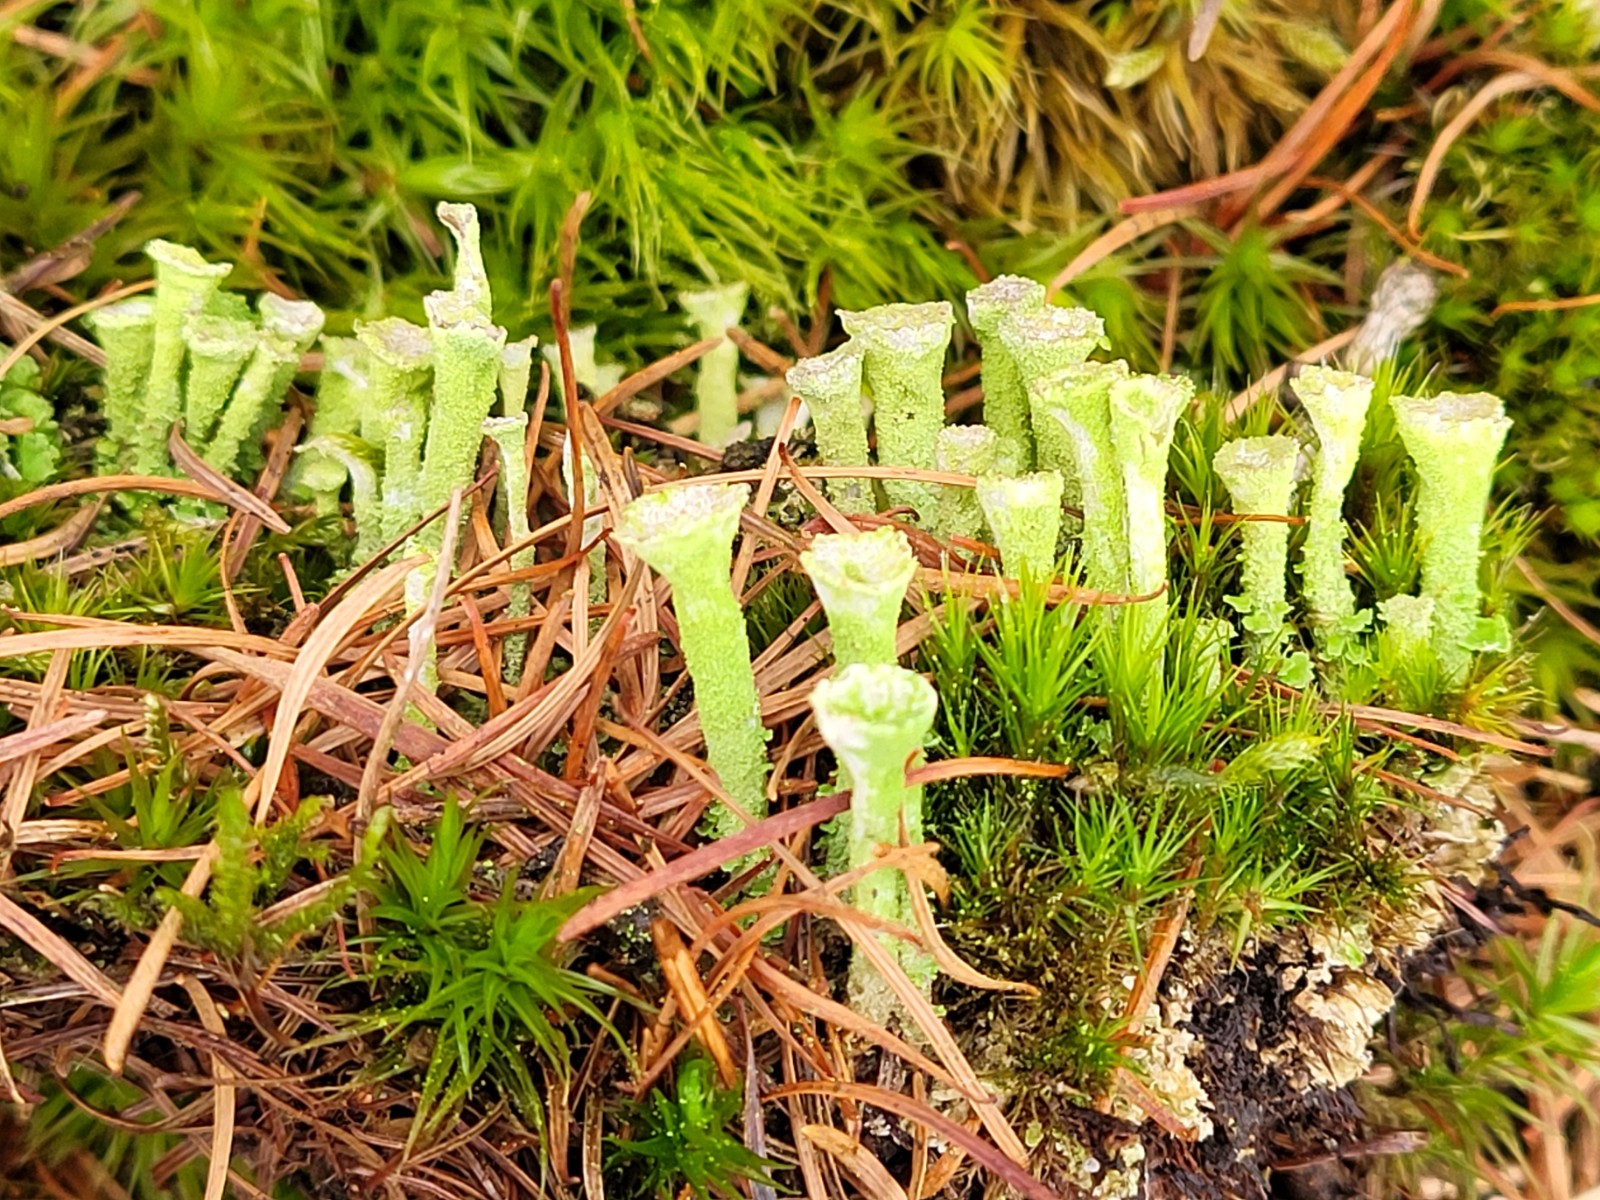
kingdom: Fungi
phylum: Ascomycota
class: Lecanoromycetes
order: Lecanorales
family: Cladoniaceae
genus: Cladonia
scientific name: Cladonia
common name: brungrøn bægerlav
